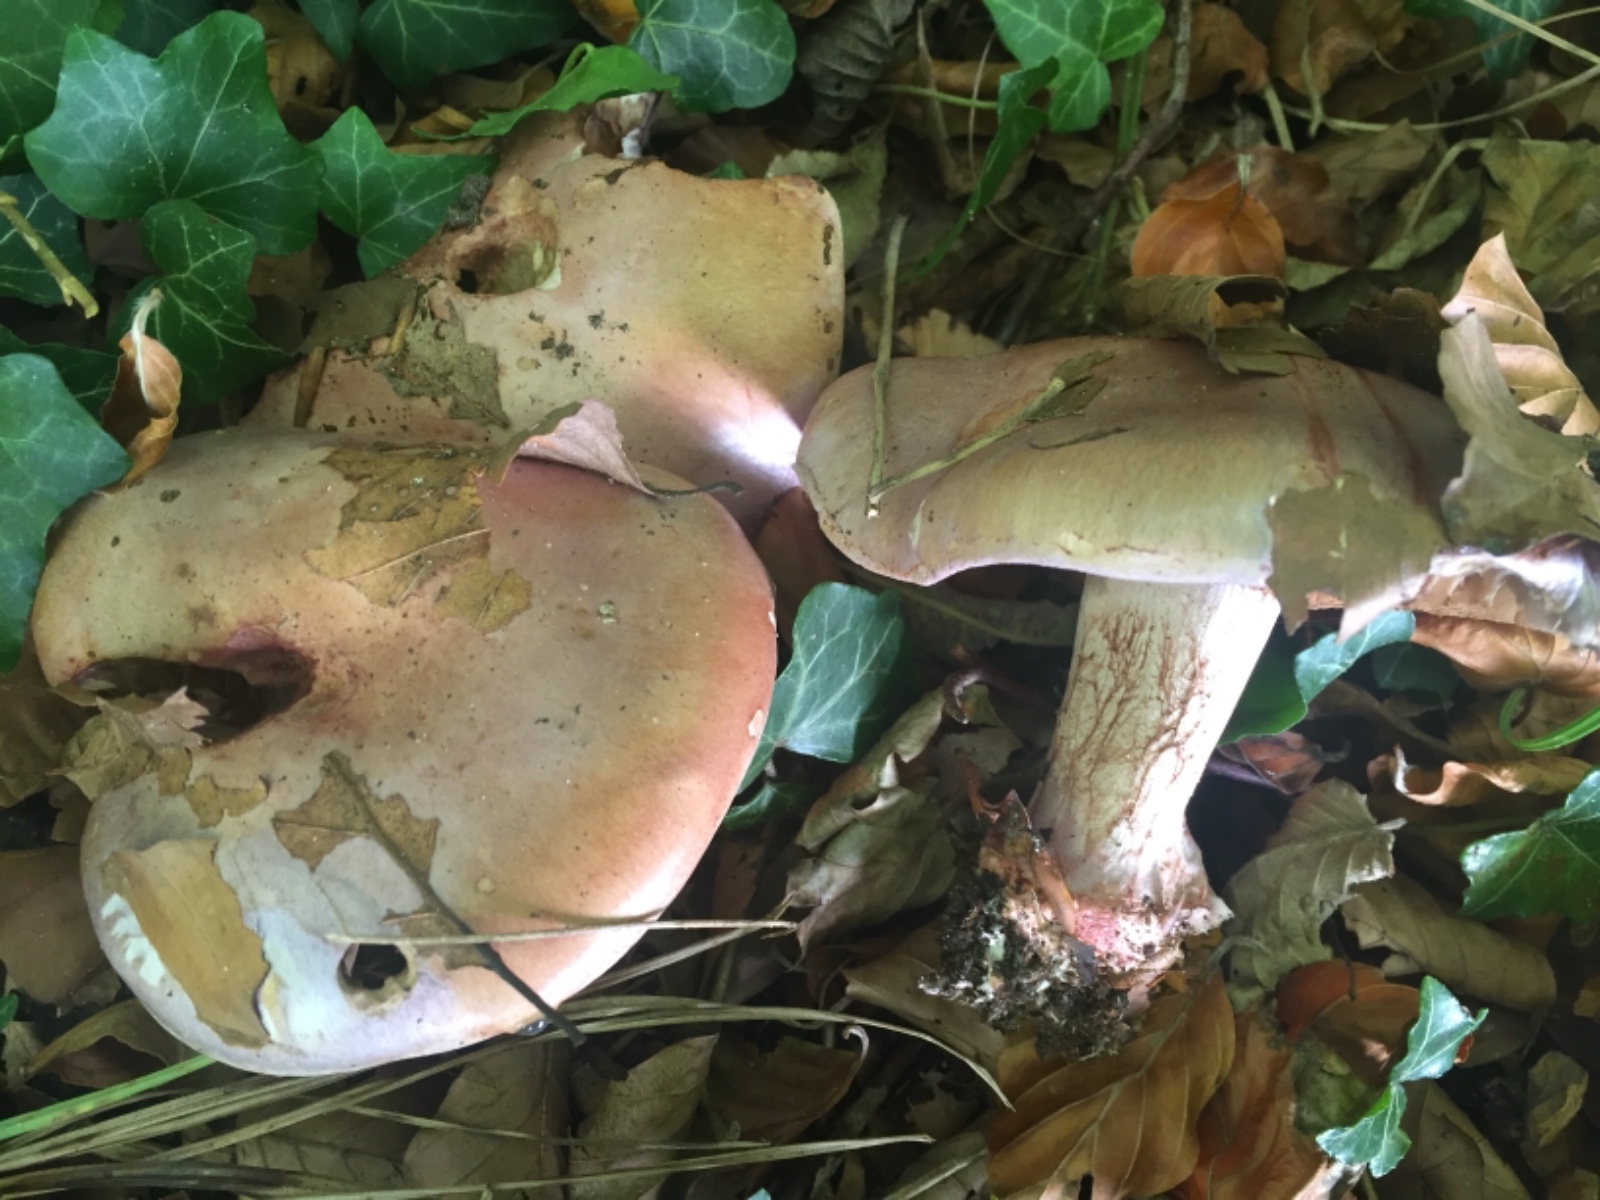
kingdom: Fungi
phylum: Basidiomycota
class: Agaricomycetes
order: Agaricales
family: Cortinariaceae
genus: Calonarius
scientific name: Calonarius rufo-olivaceus
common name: firefarvet slørhat
